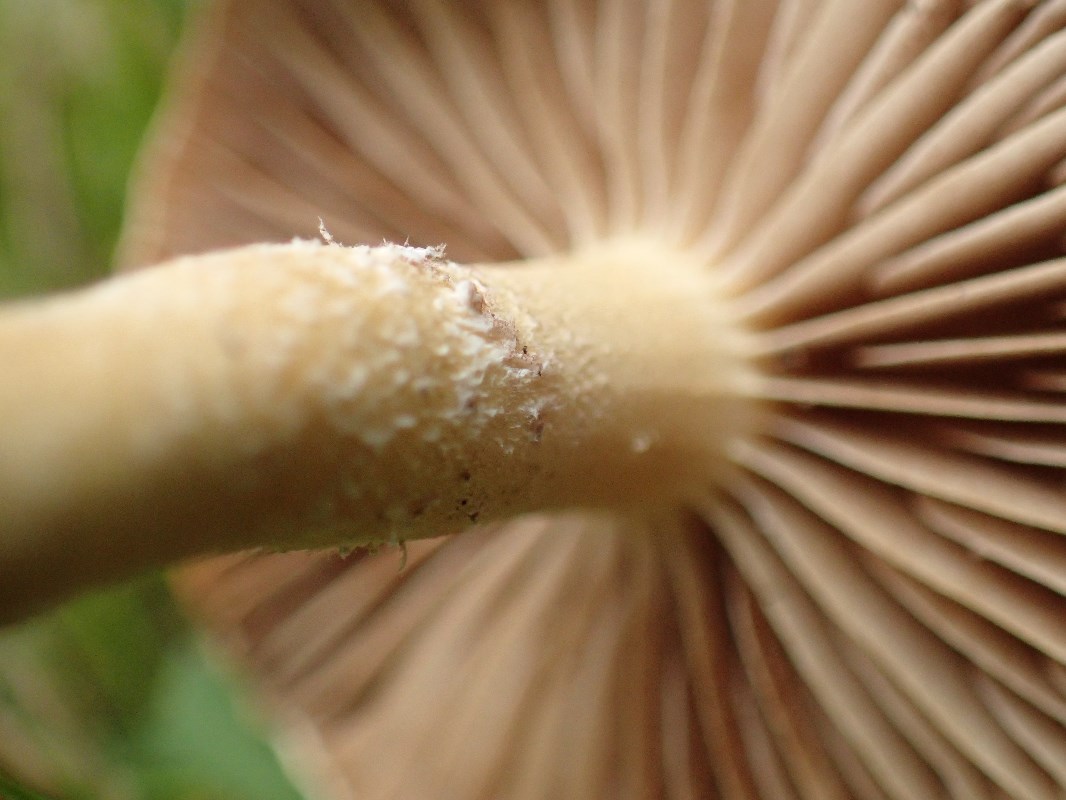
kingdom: Fungi
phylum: Basidiomycota
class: Agaricomycetes
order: Agaricales
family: Strophariaceae
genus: Agrocybe
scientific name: Agrocybe praecox
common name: tidlig agerhat
